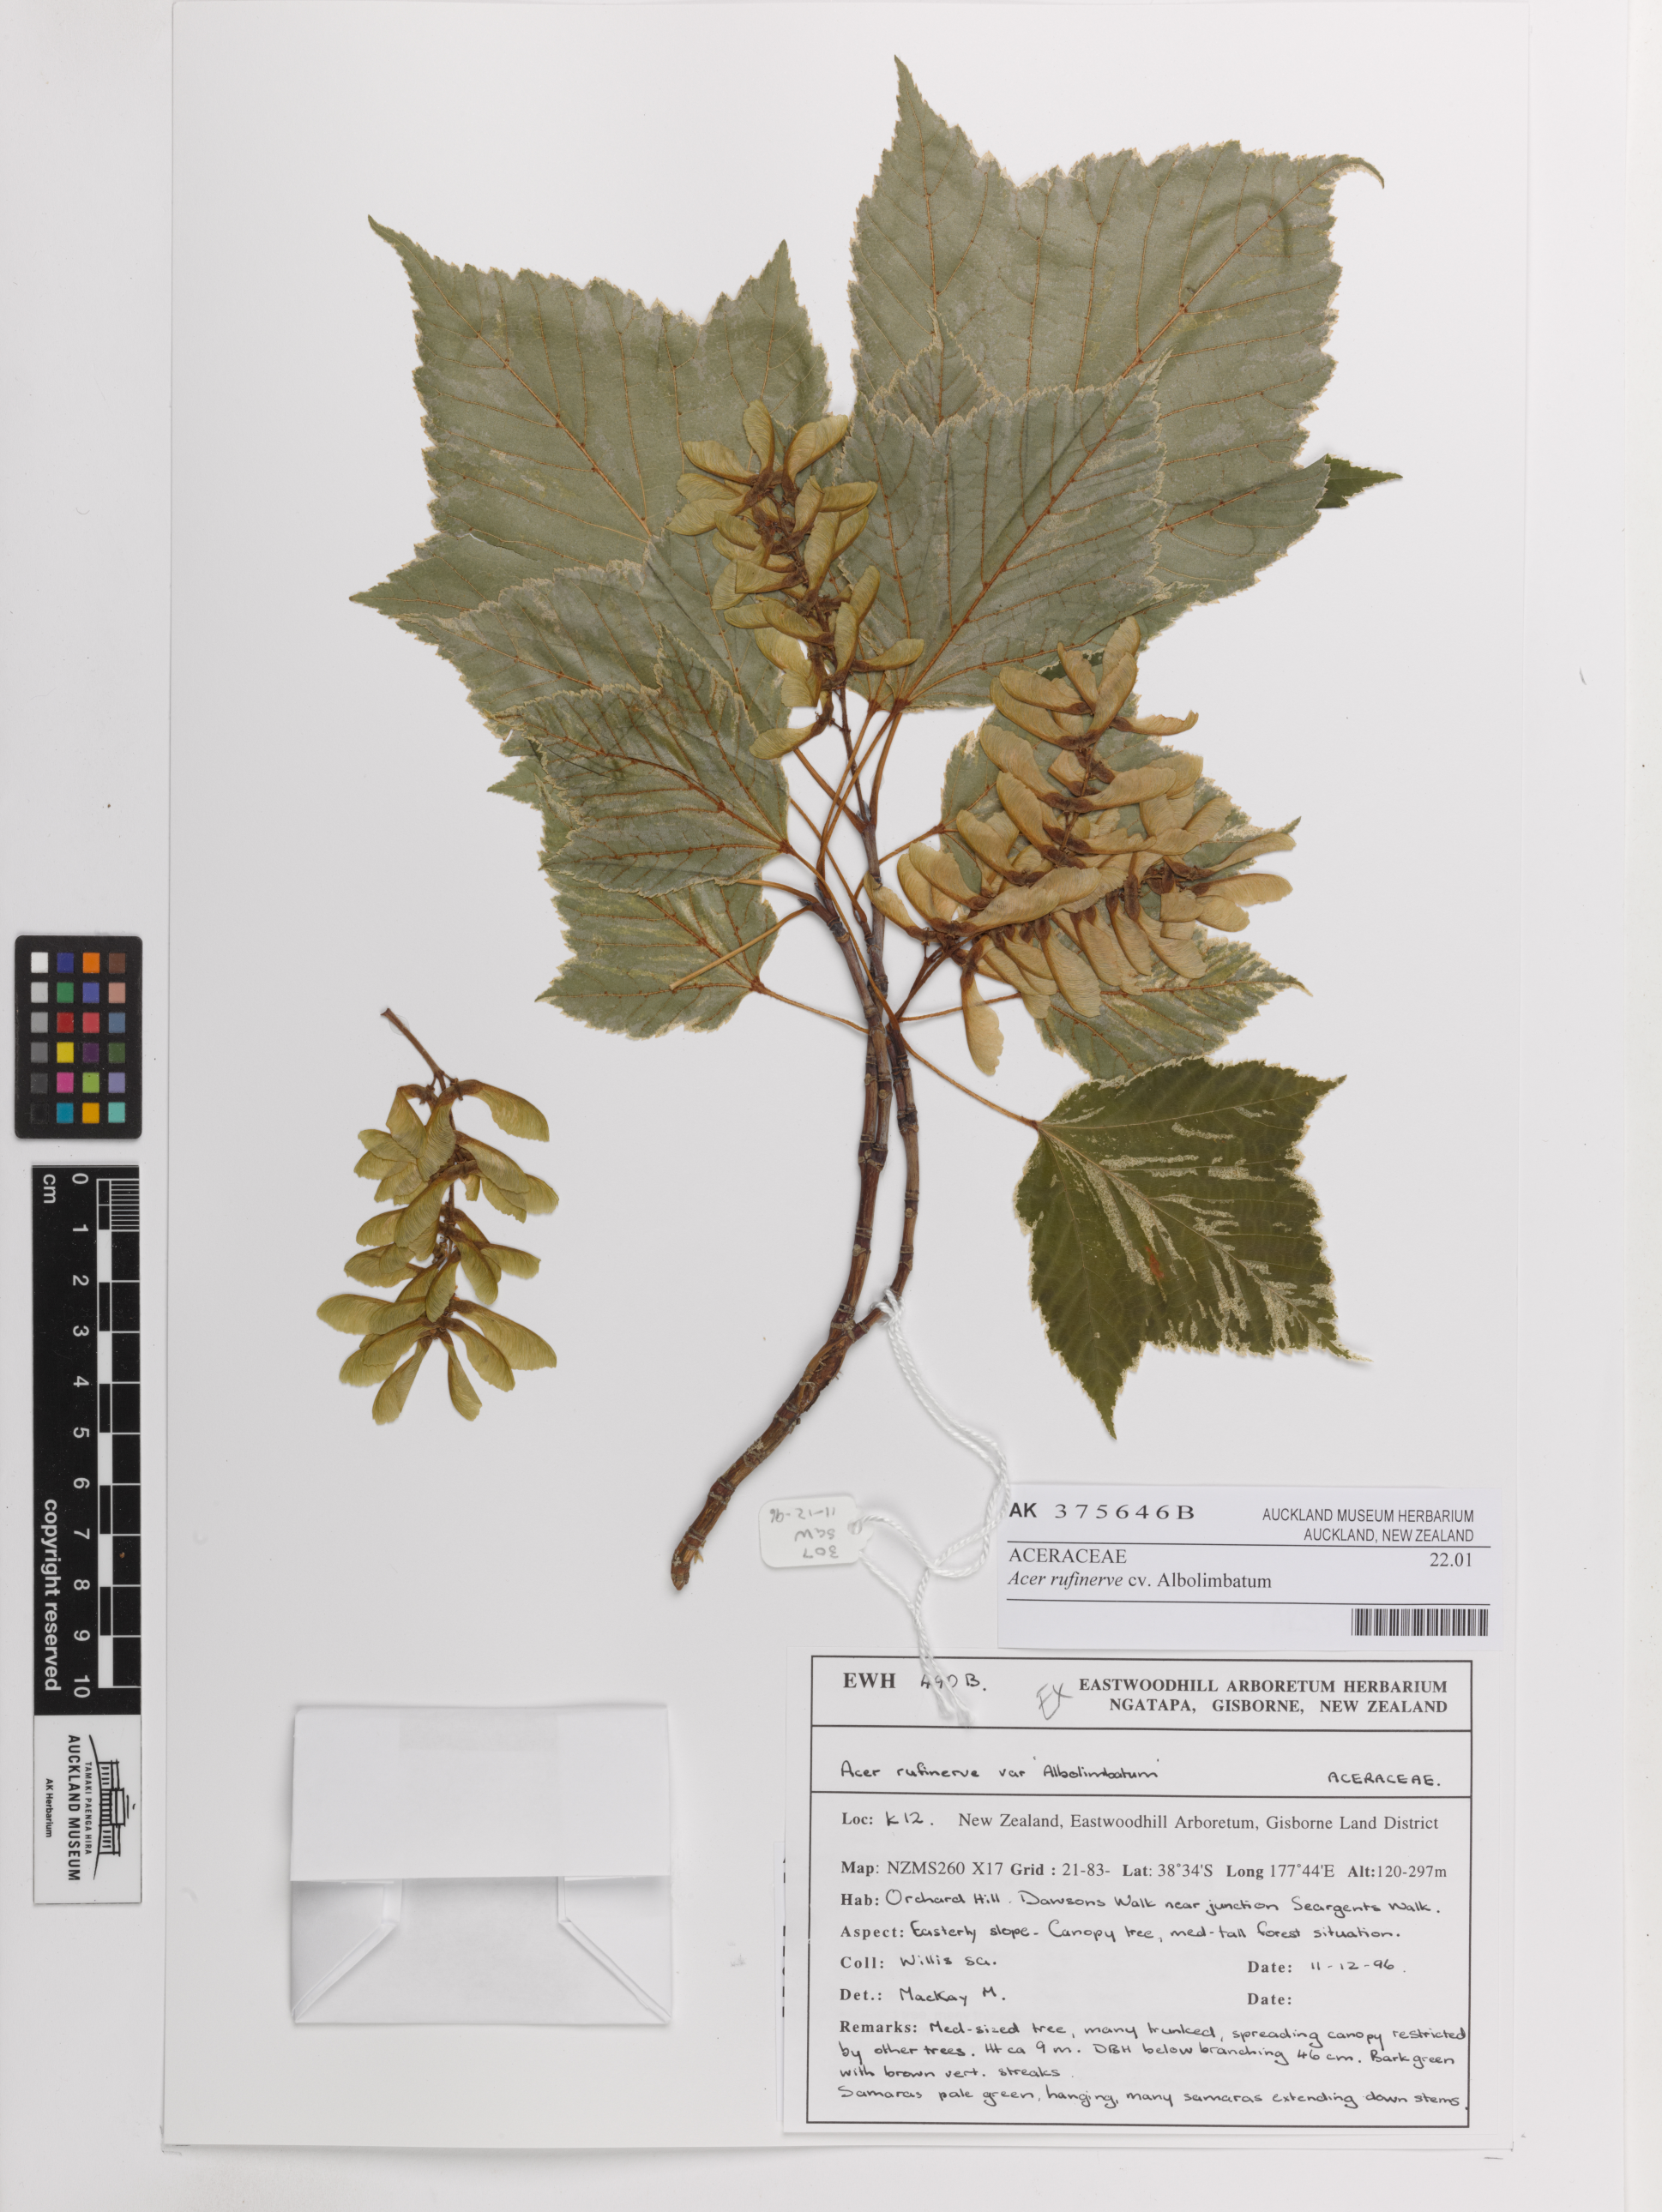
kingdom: Plantae
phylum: Tracheophyta
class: Magnoliopsida
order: Sapindales
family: Sapindaceae
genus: Acer
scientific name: Acer rufinerve
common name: Red veined maple
